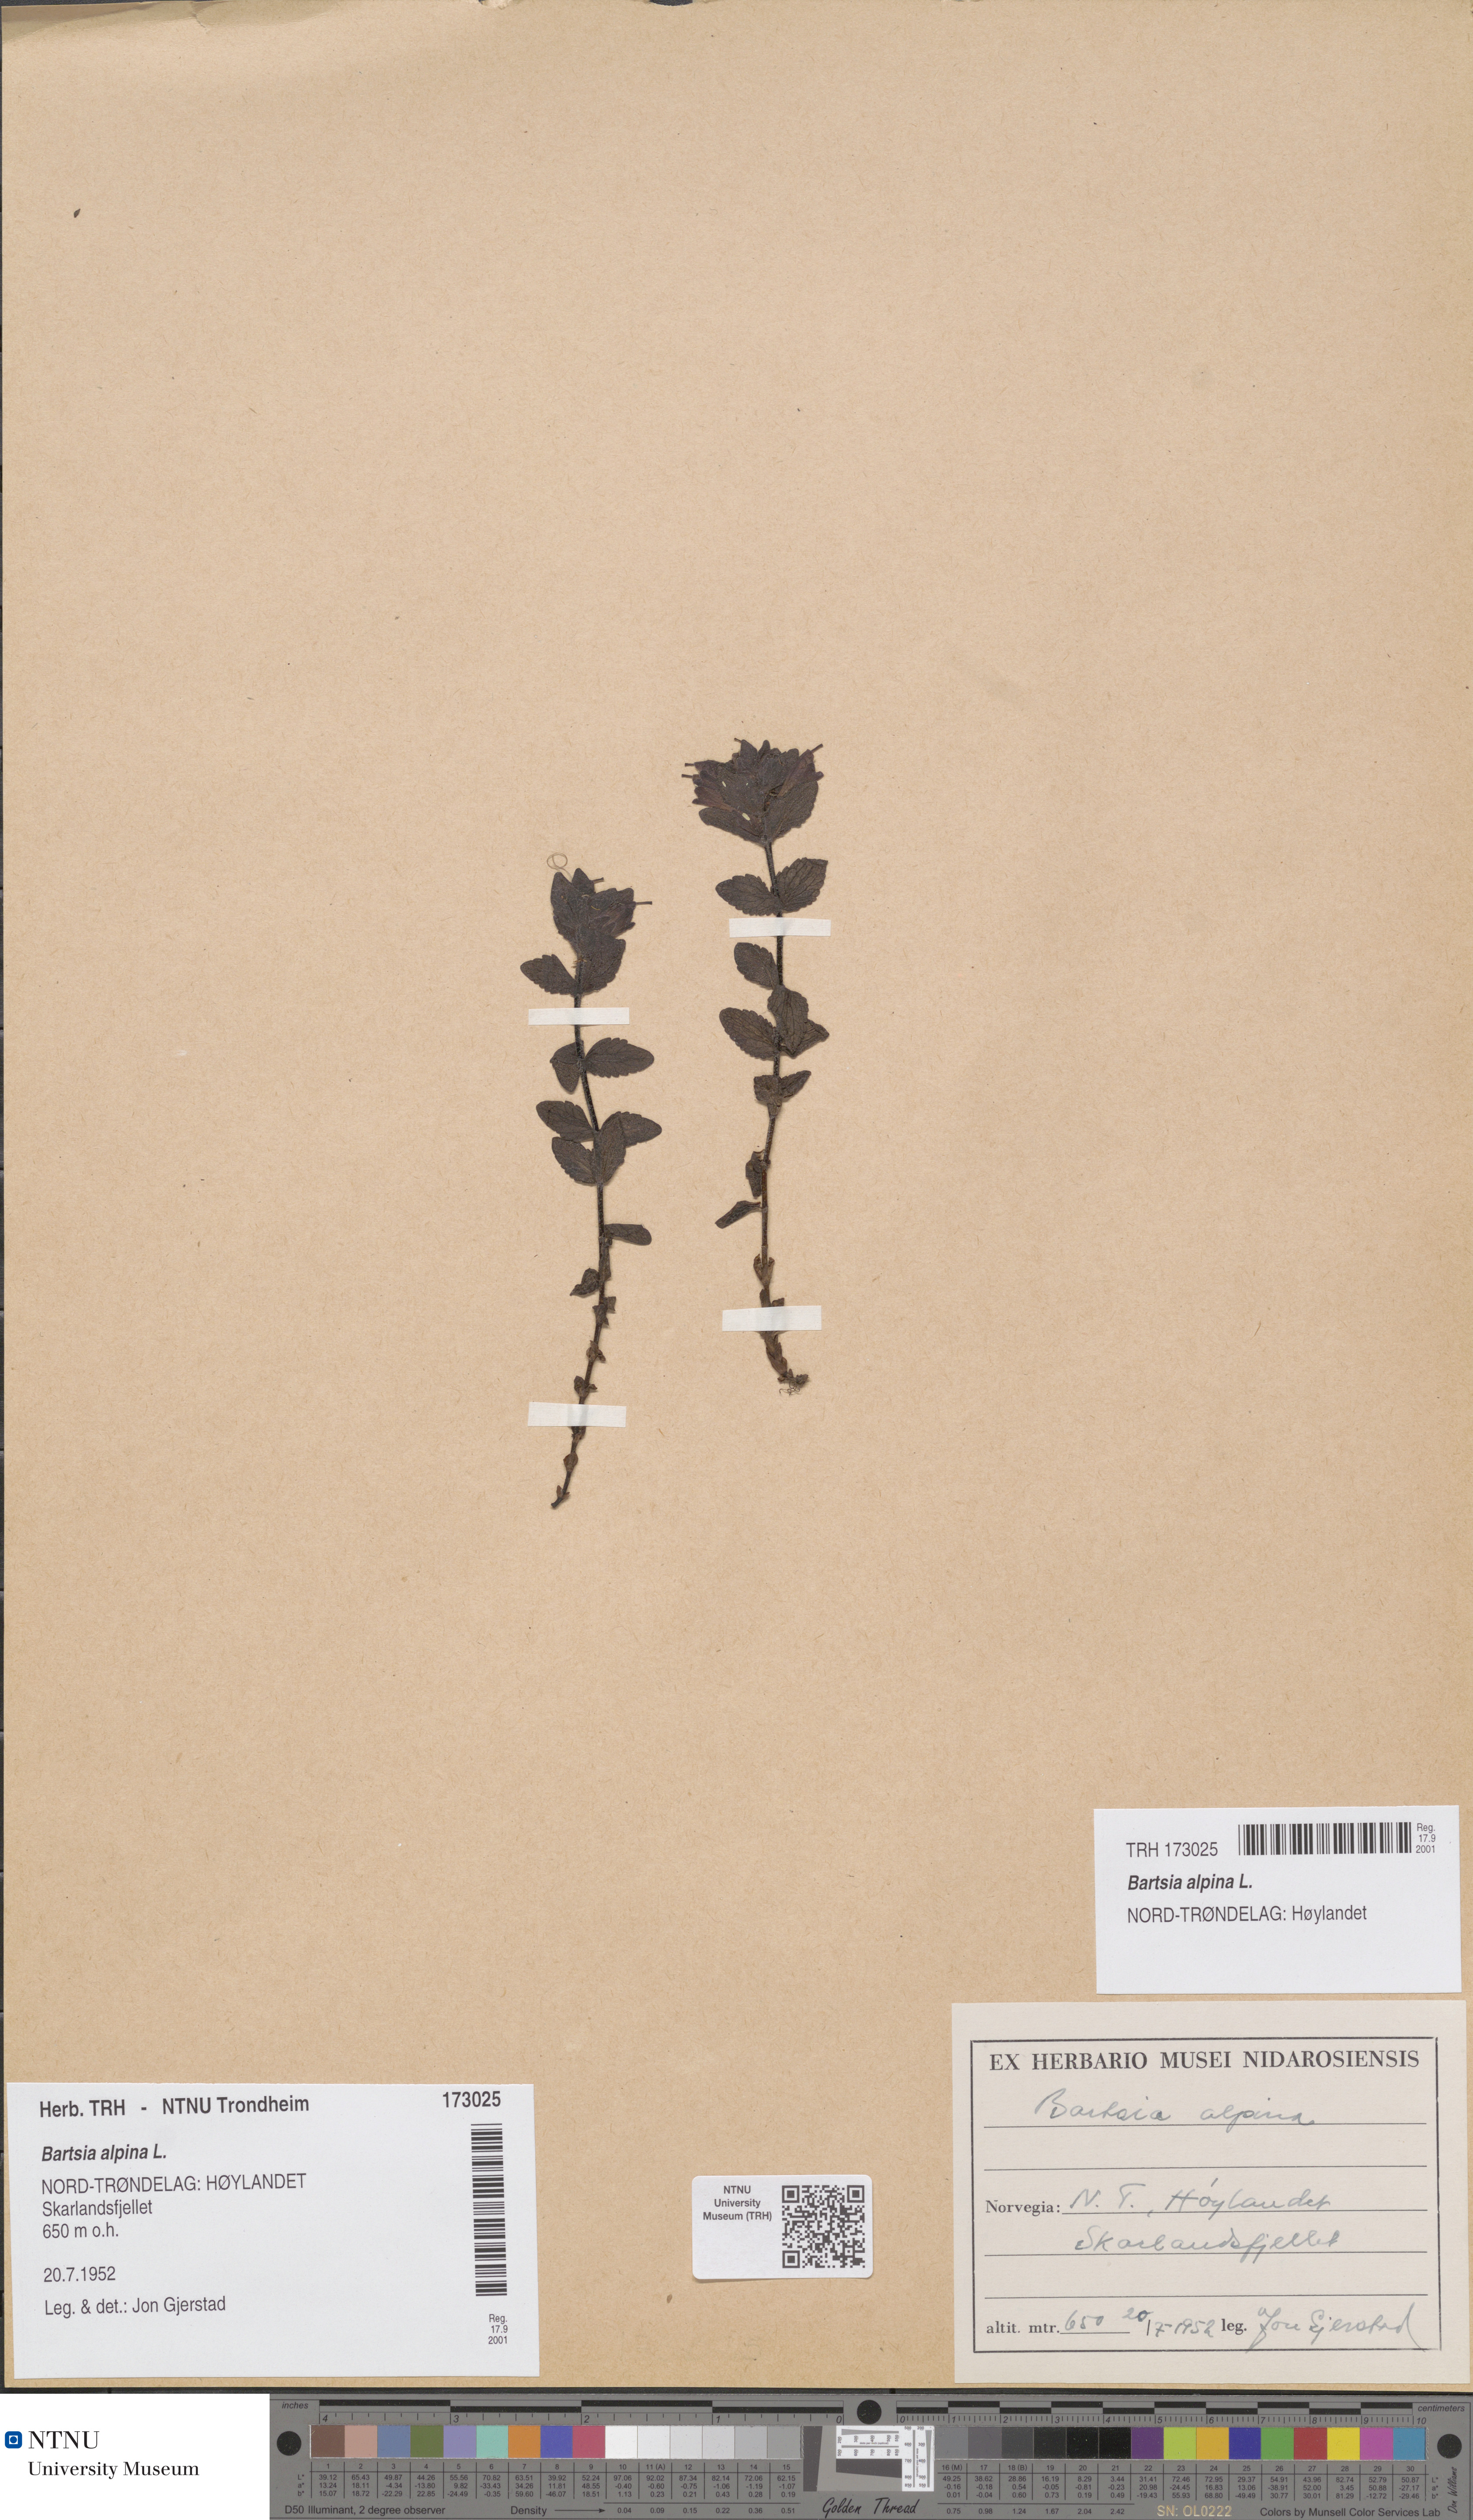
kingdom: Plantae
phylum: Tracheophyta
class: Magnoliopsida
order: Lamiales
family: Orobanchaceae
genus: Bartsia
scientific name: Bartsia alpina
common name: Alpine bartsia
